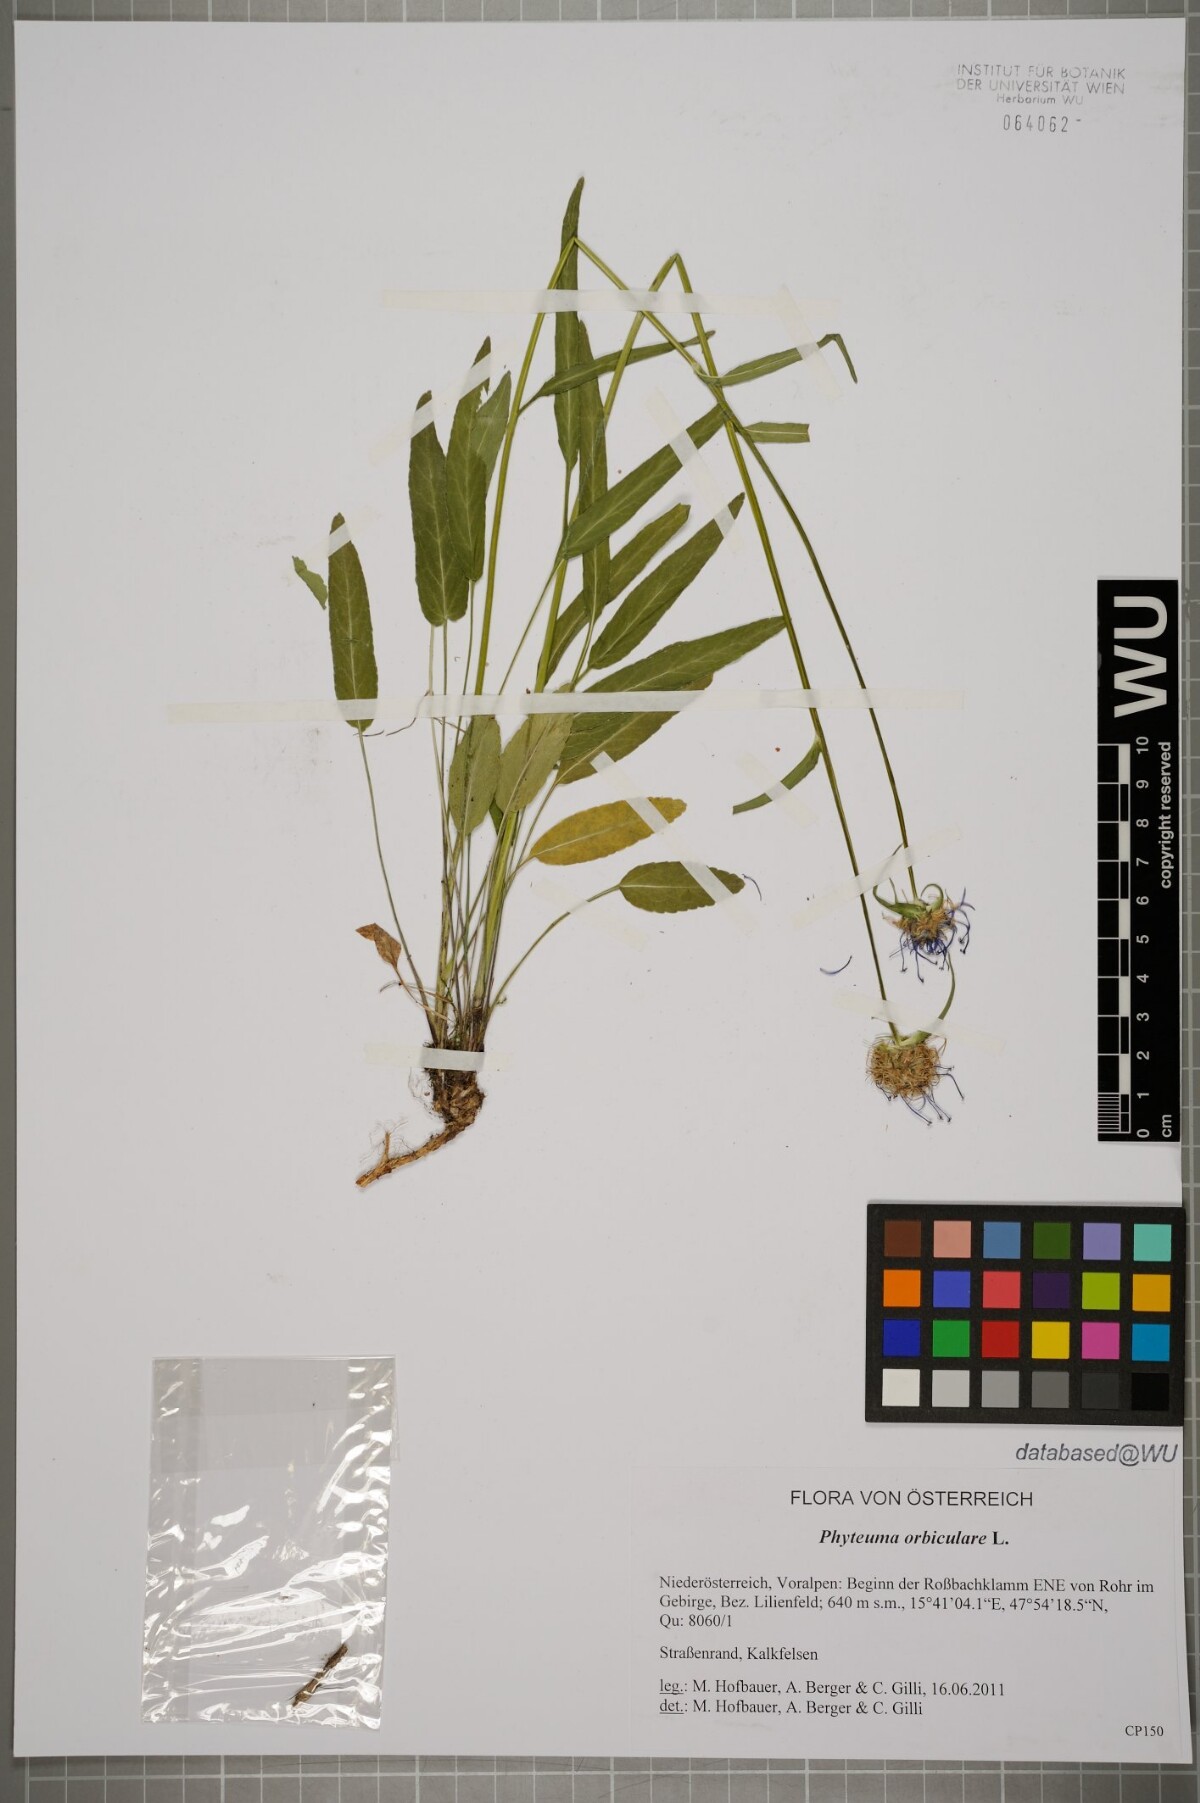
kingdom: Plantae
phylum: Tracheophyta
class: Magnoliopsida
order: Asterales
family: Campanulaceae
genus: Phyteuma
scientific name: Phyteuma orbiculare
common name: Round-headed rampion
